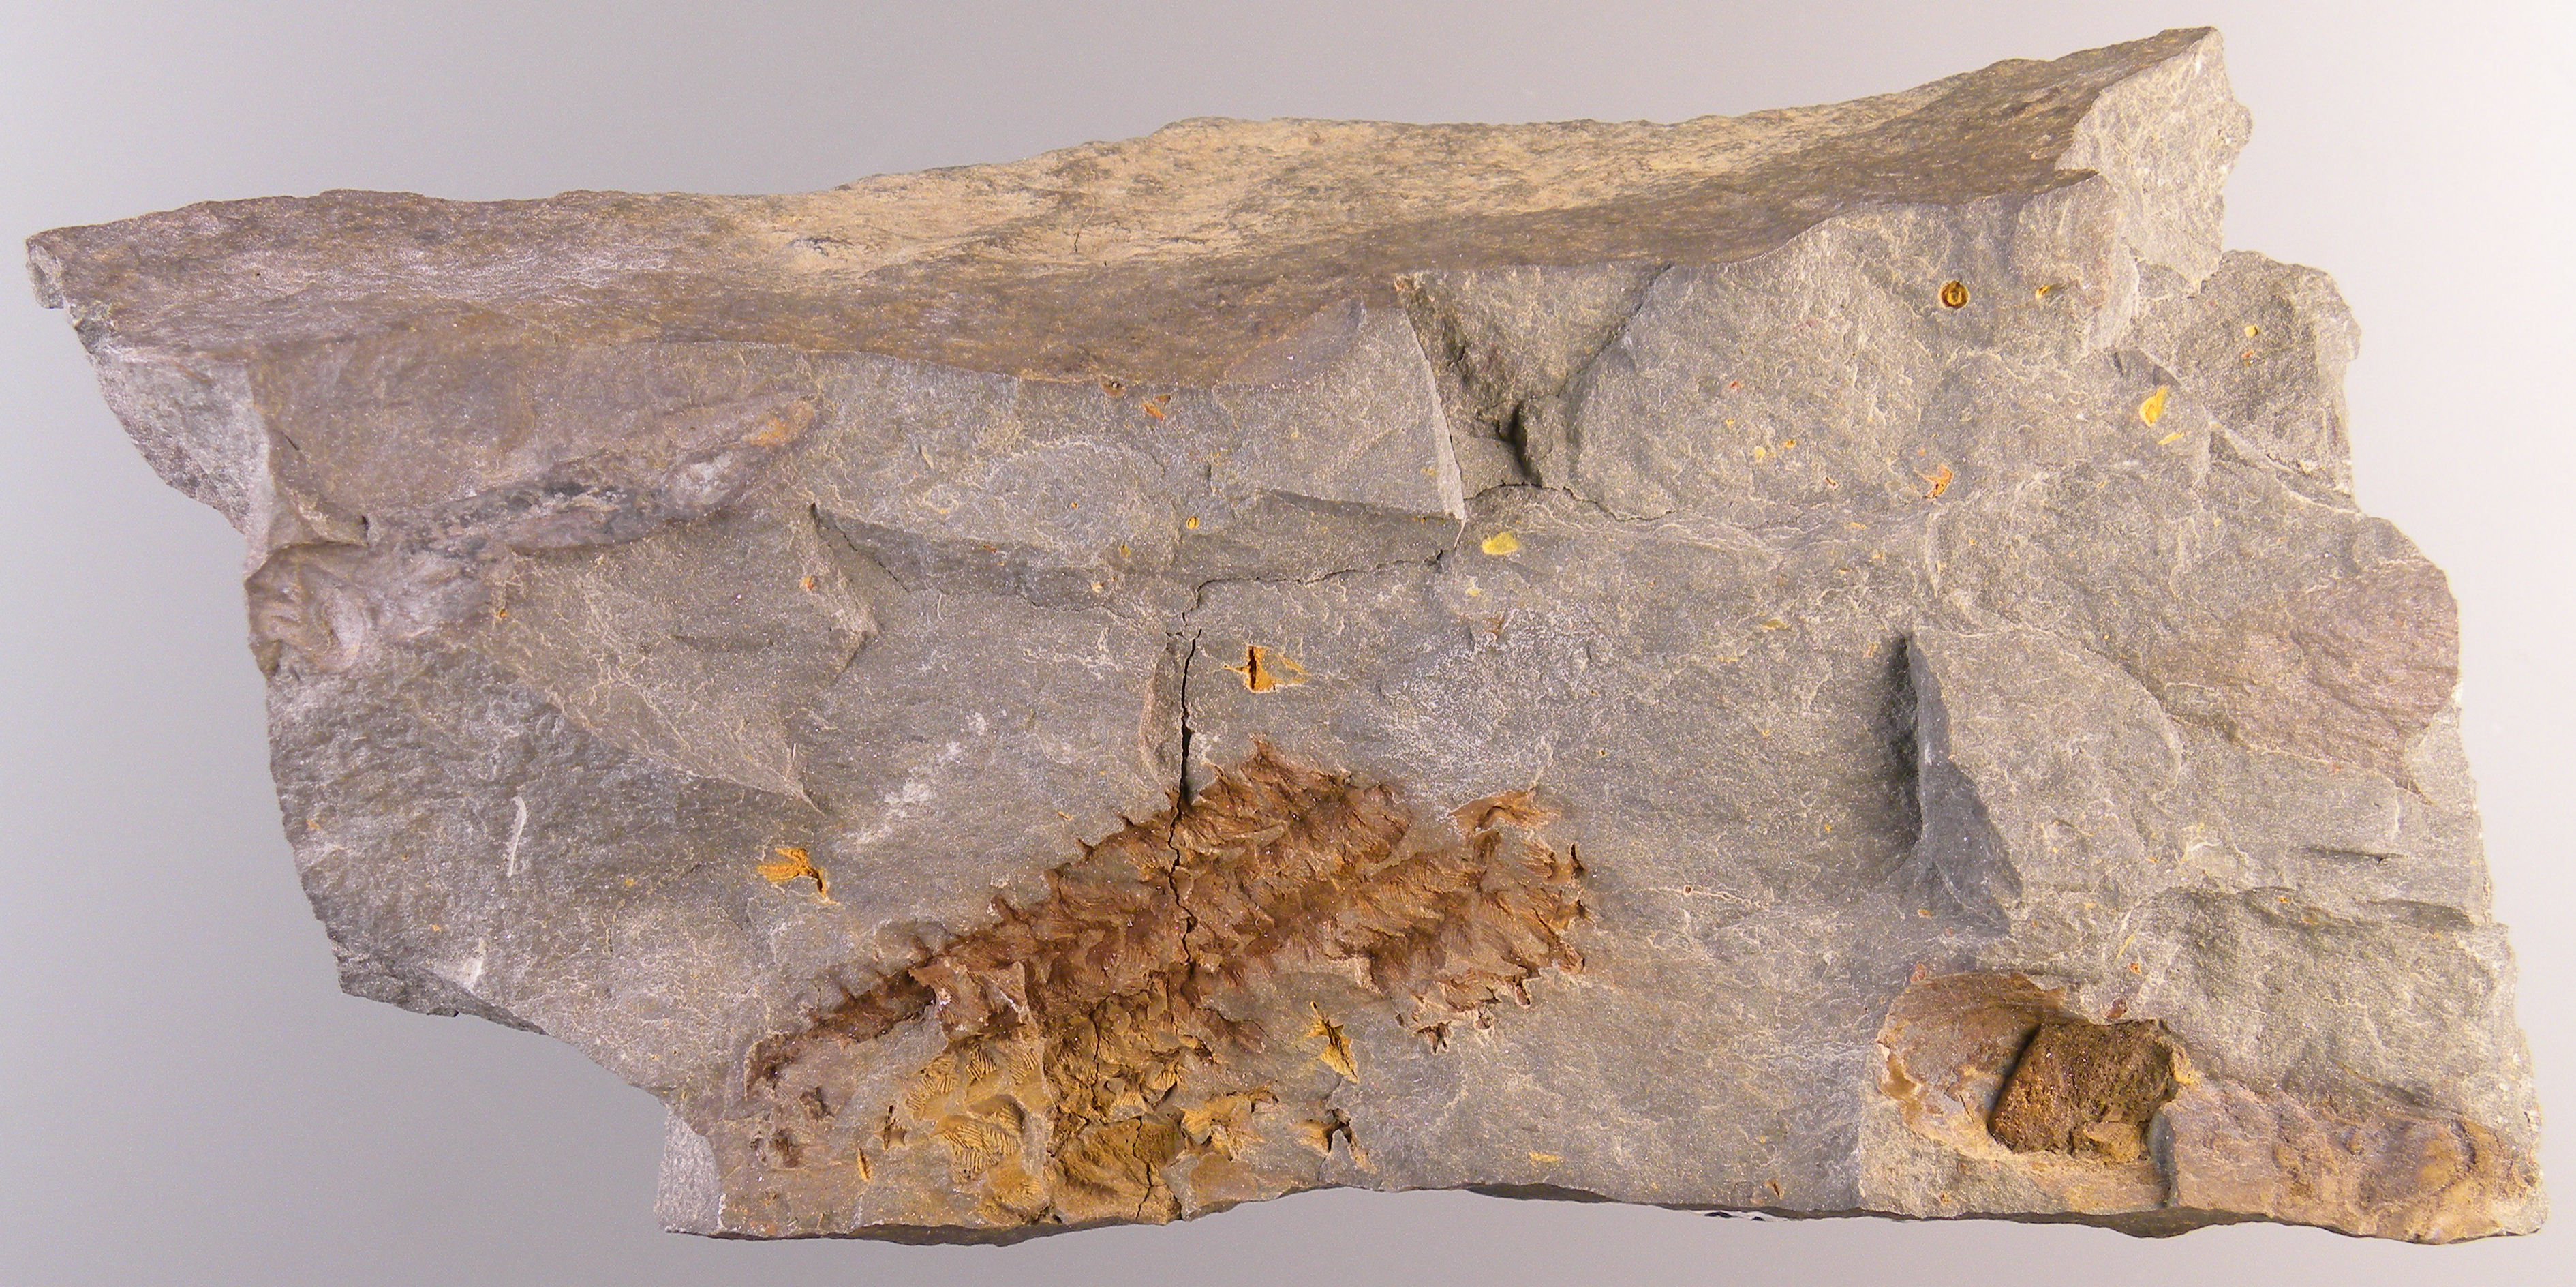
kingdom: Animalia
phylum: Echinodermata
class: Crinoidea
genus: Gastrocrinus
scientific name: Gastrocrinus
